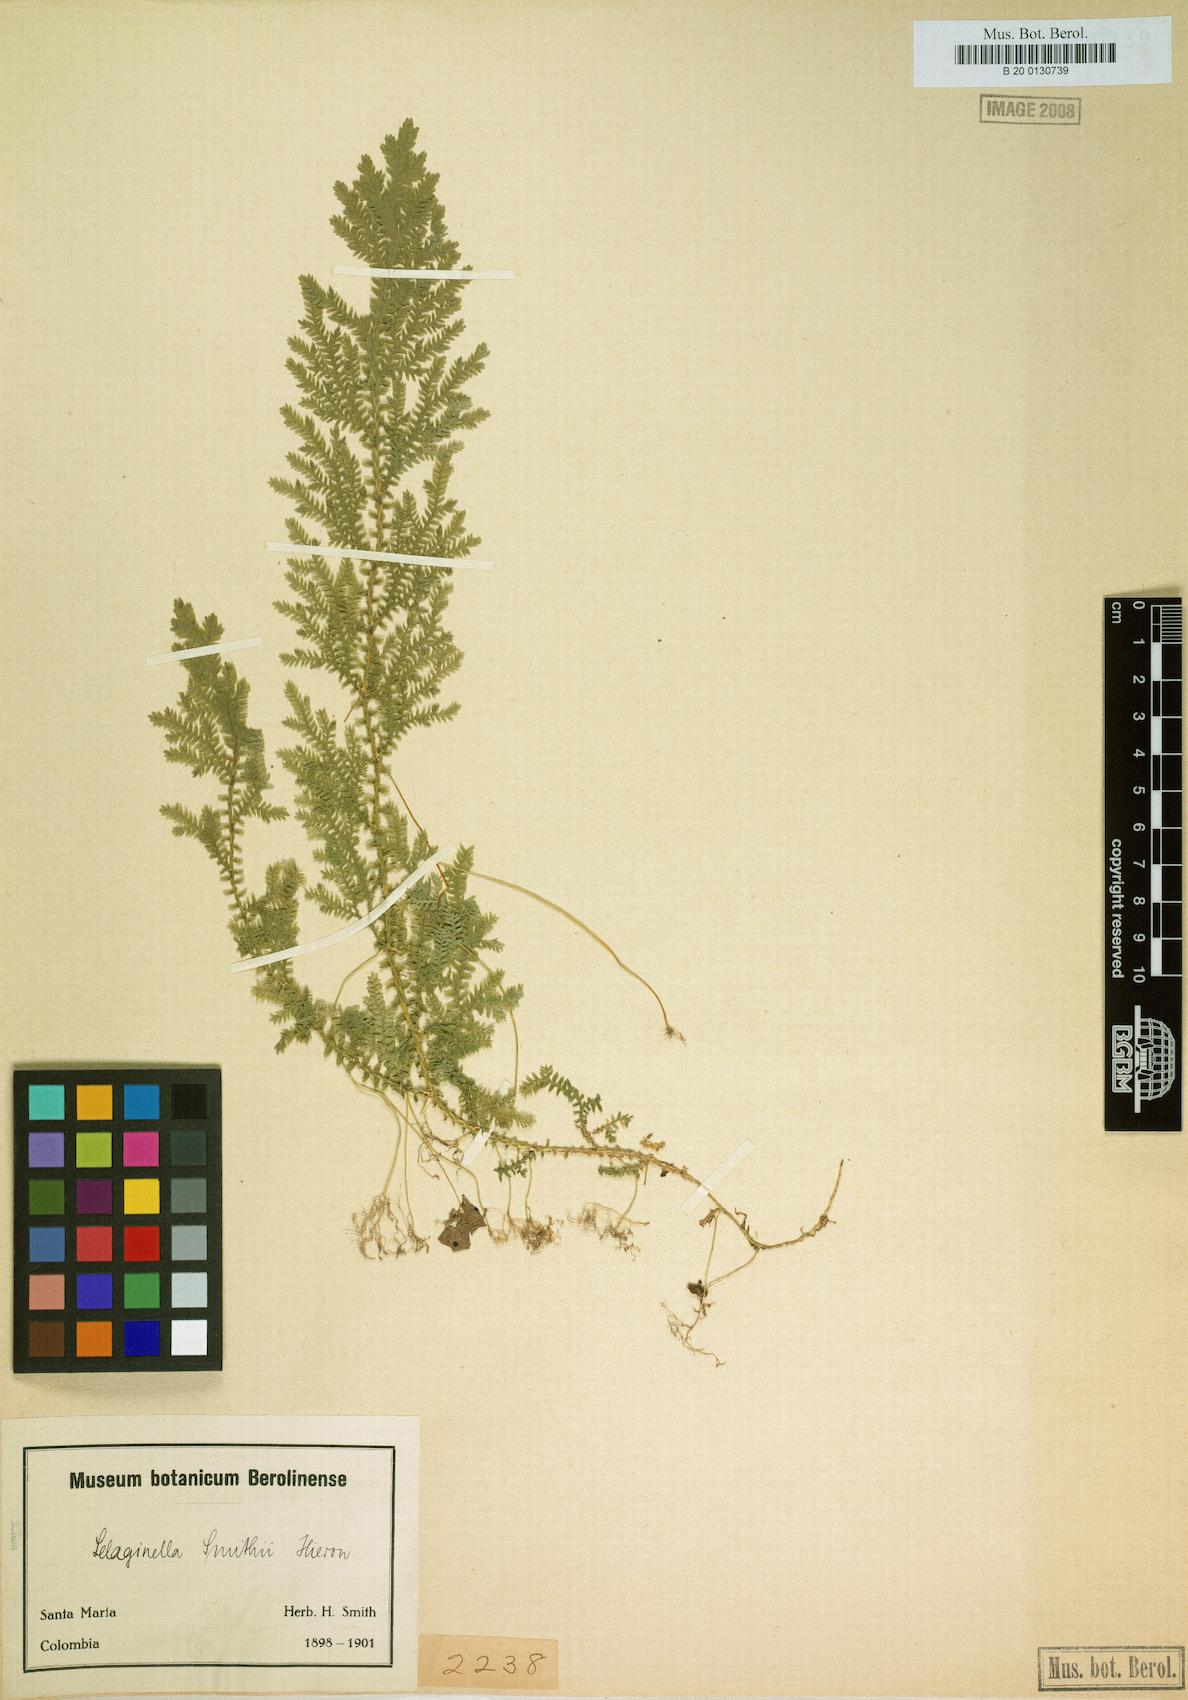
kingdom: Plantae
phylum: Tracheophyta
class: Lycopodiopsida
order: Selaginellales
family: Selaginellaceae
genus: Selaginella
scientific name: Selaginella vaginata
